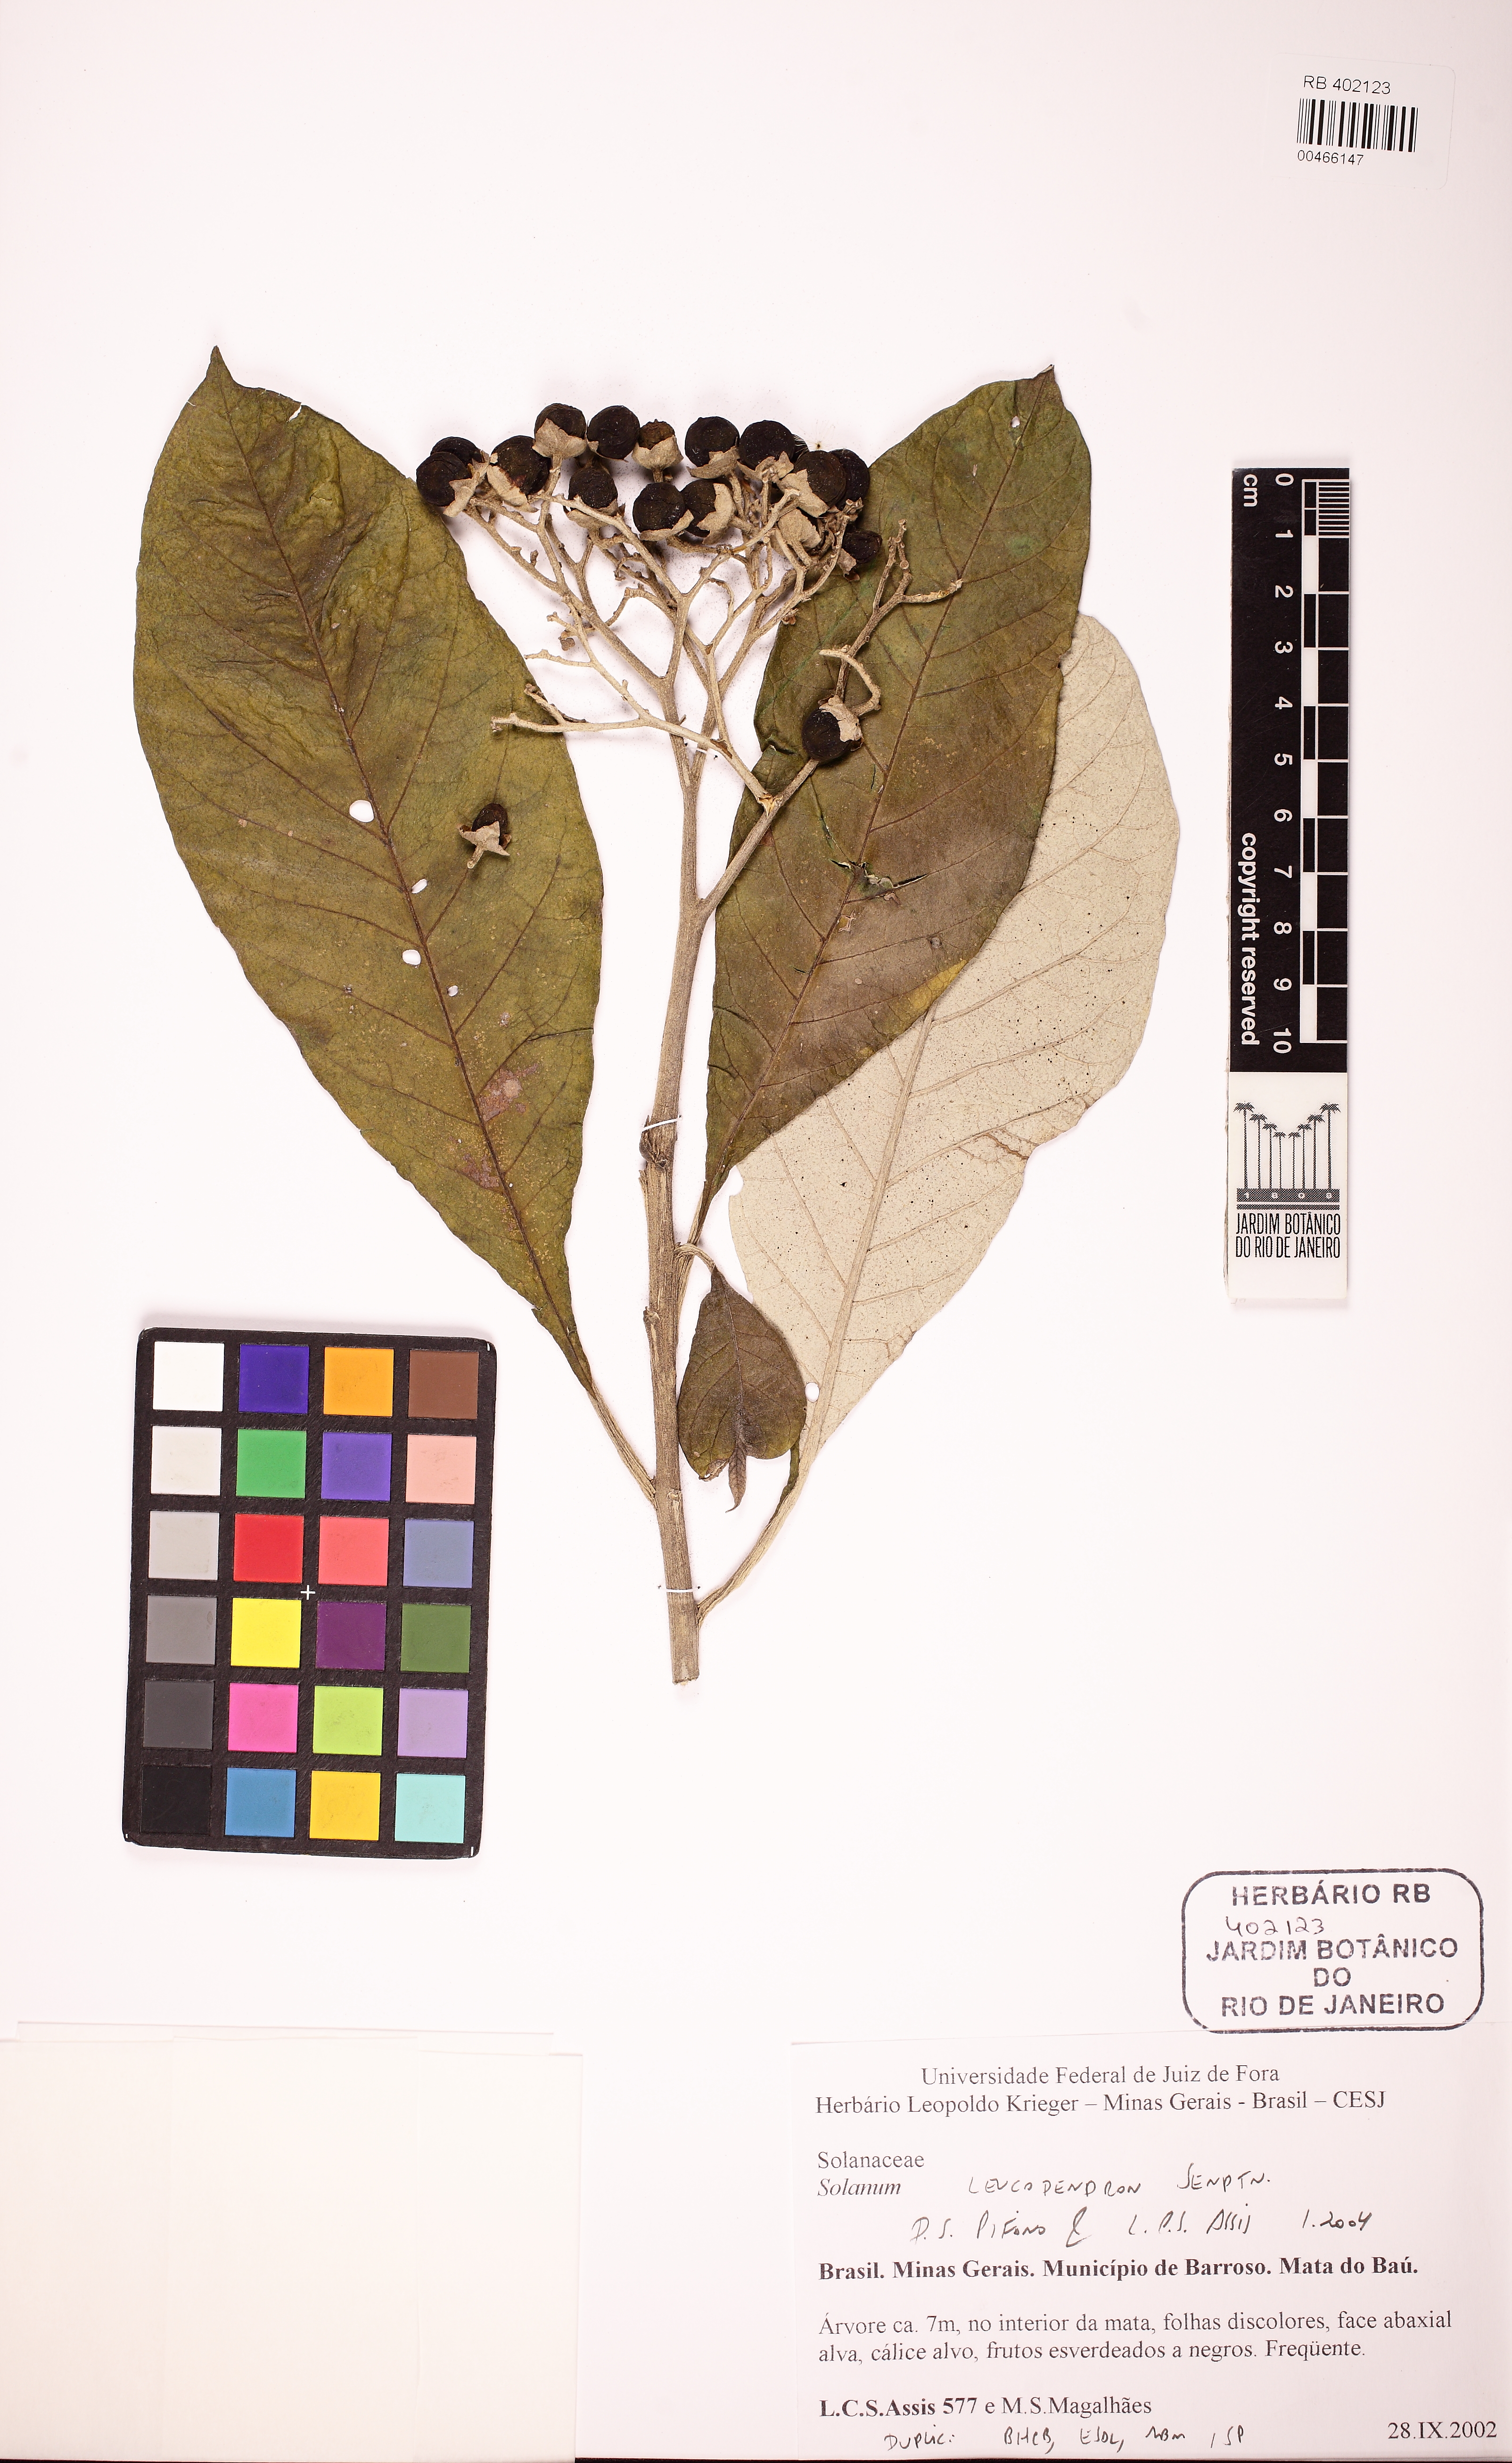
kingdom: Plantae
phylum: Tracheophyta
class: Magnoliopsida
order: Solanales
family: Solanaceae
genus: Solanum
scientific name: Solanum leucodendron
